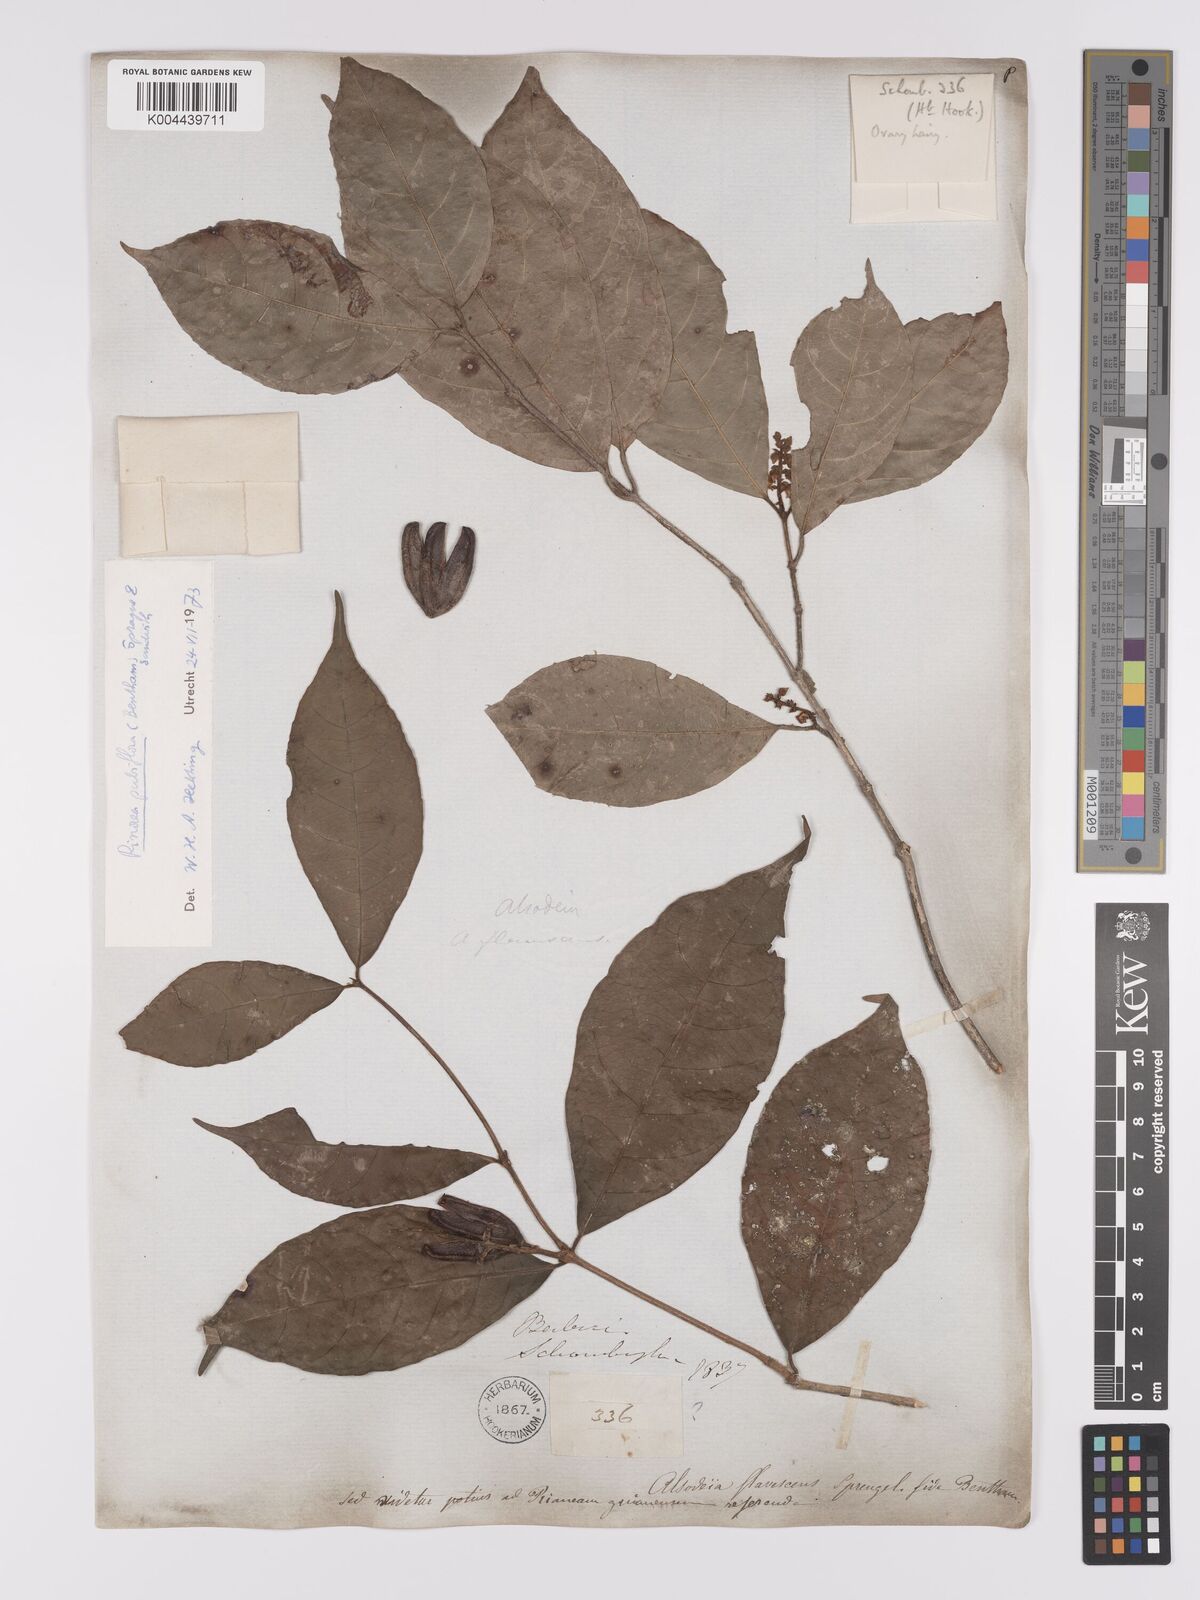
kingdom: Plantae
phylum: Tracheophyta
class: Magnoliopsida
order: Malpighiales
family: Violaceae
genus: Rinorea
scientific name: Rinorea pubiflora
